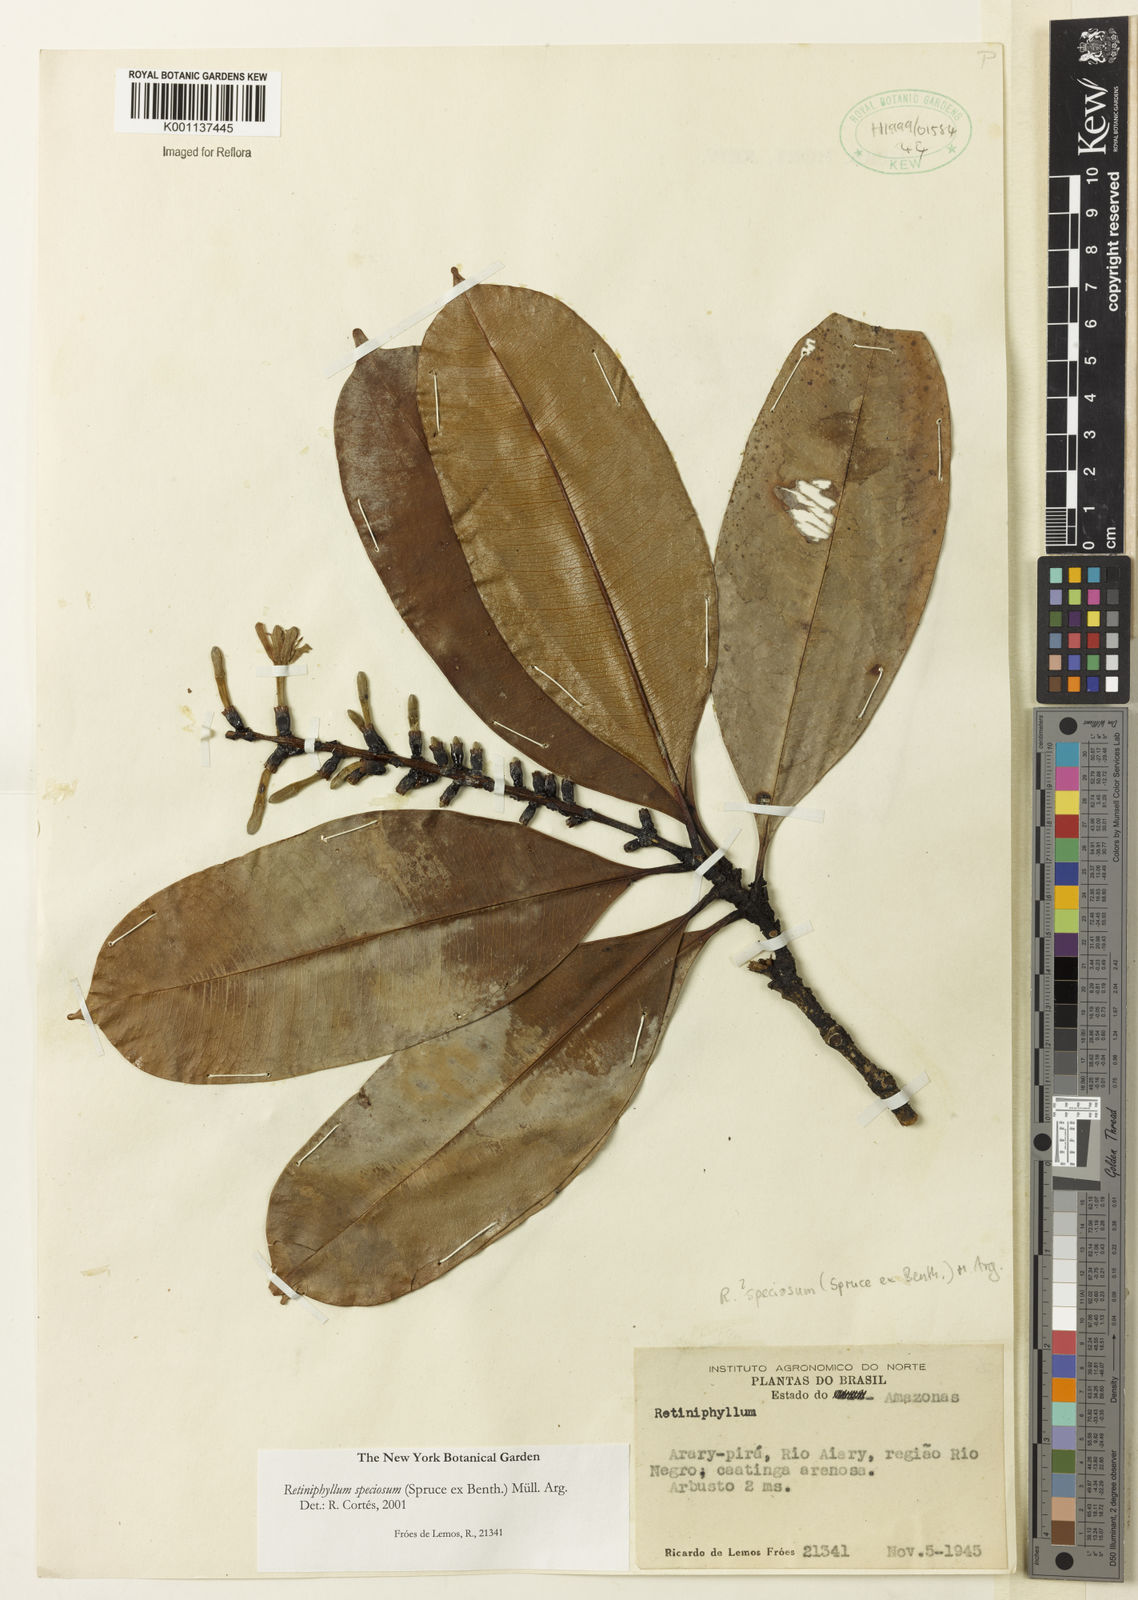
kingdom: Plantae
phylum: Tracheophyta
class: Magnoliopsida
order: Gentianales
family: Rubiaceae
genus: Retiniphyllum
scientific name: Retiniphyllum
